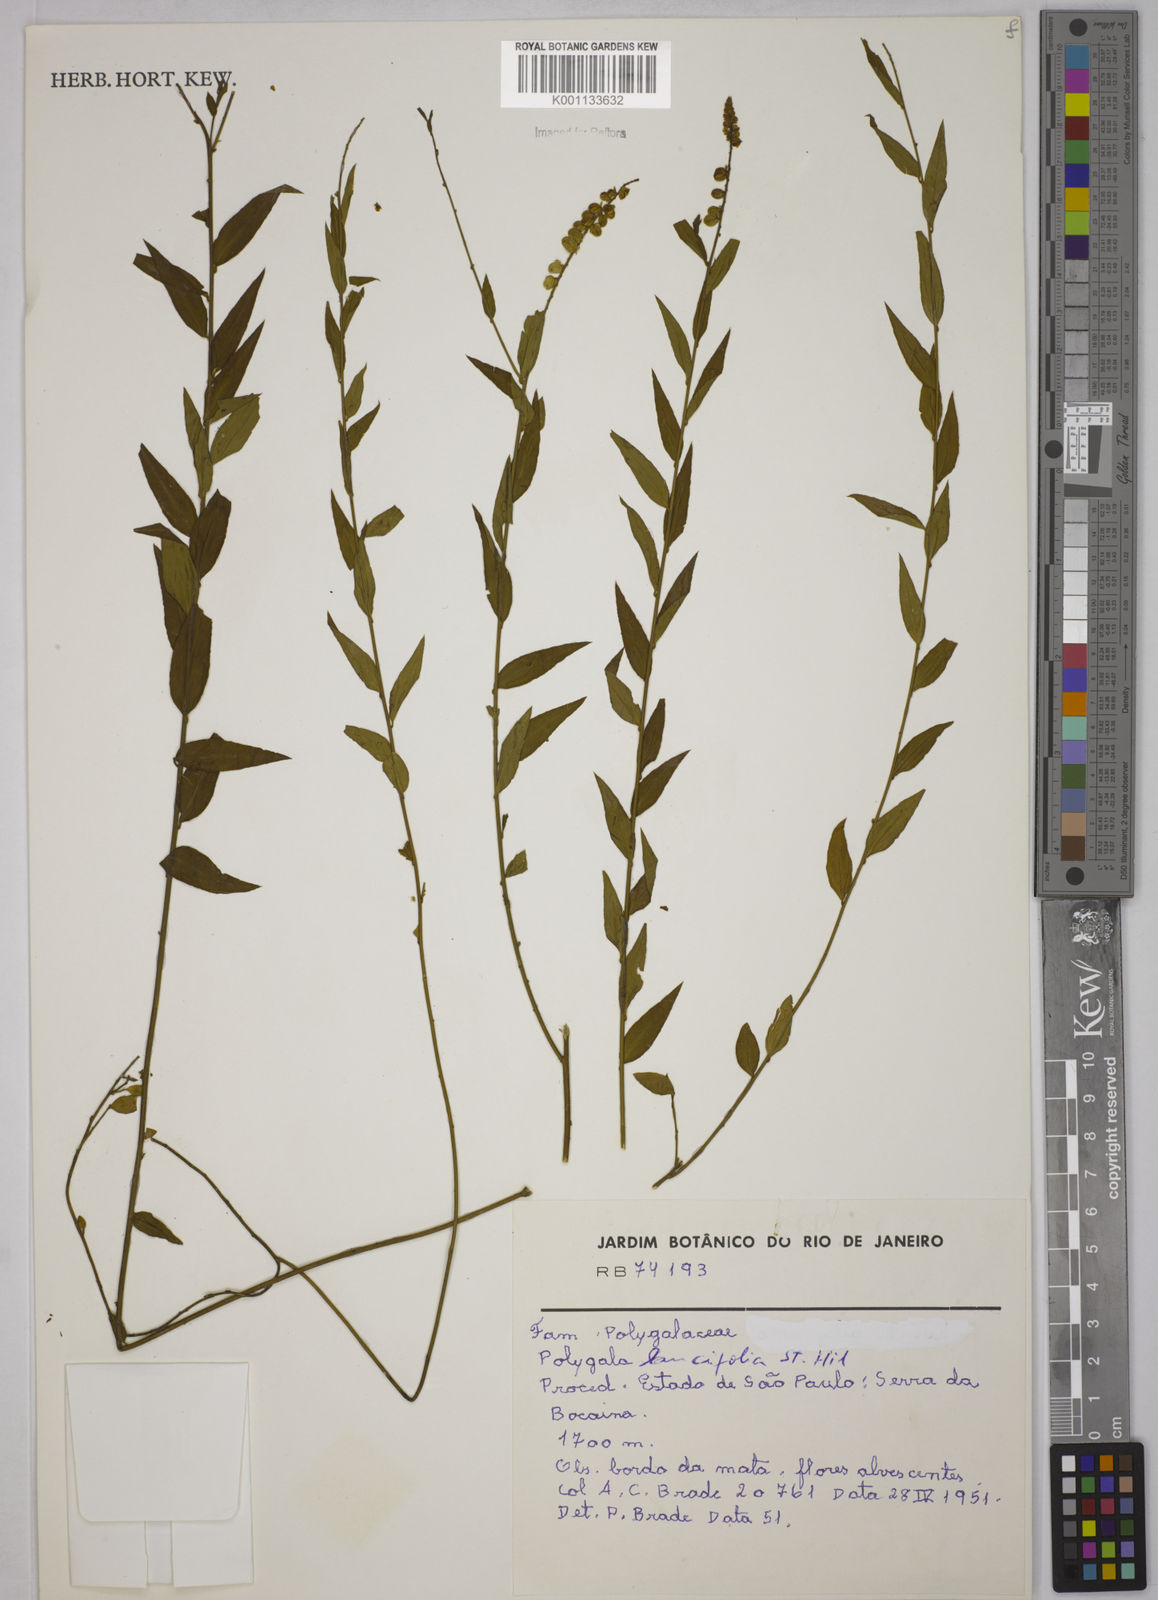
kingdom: Plantae
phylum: Tracheophyta
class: Magnoliopsida
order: Fabales
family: Polygalaceae
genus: Polygala
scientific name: Polygala lancifolia
